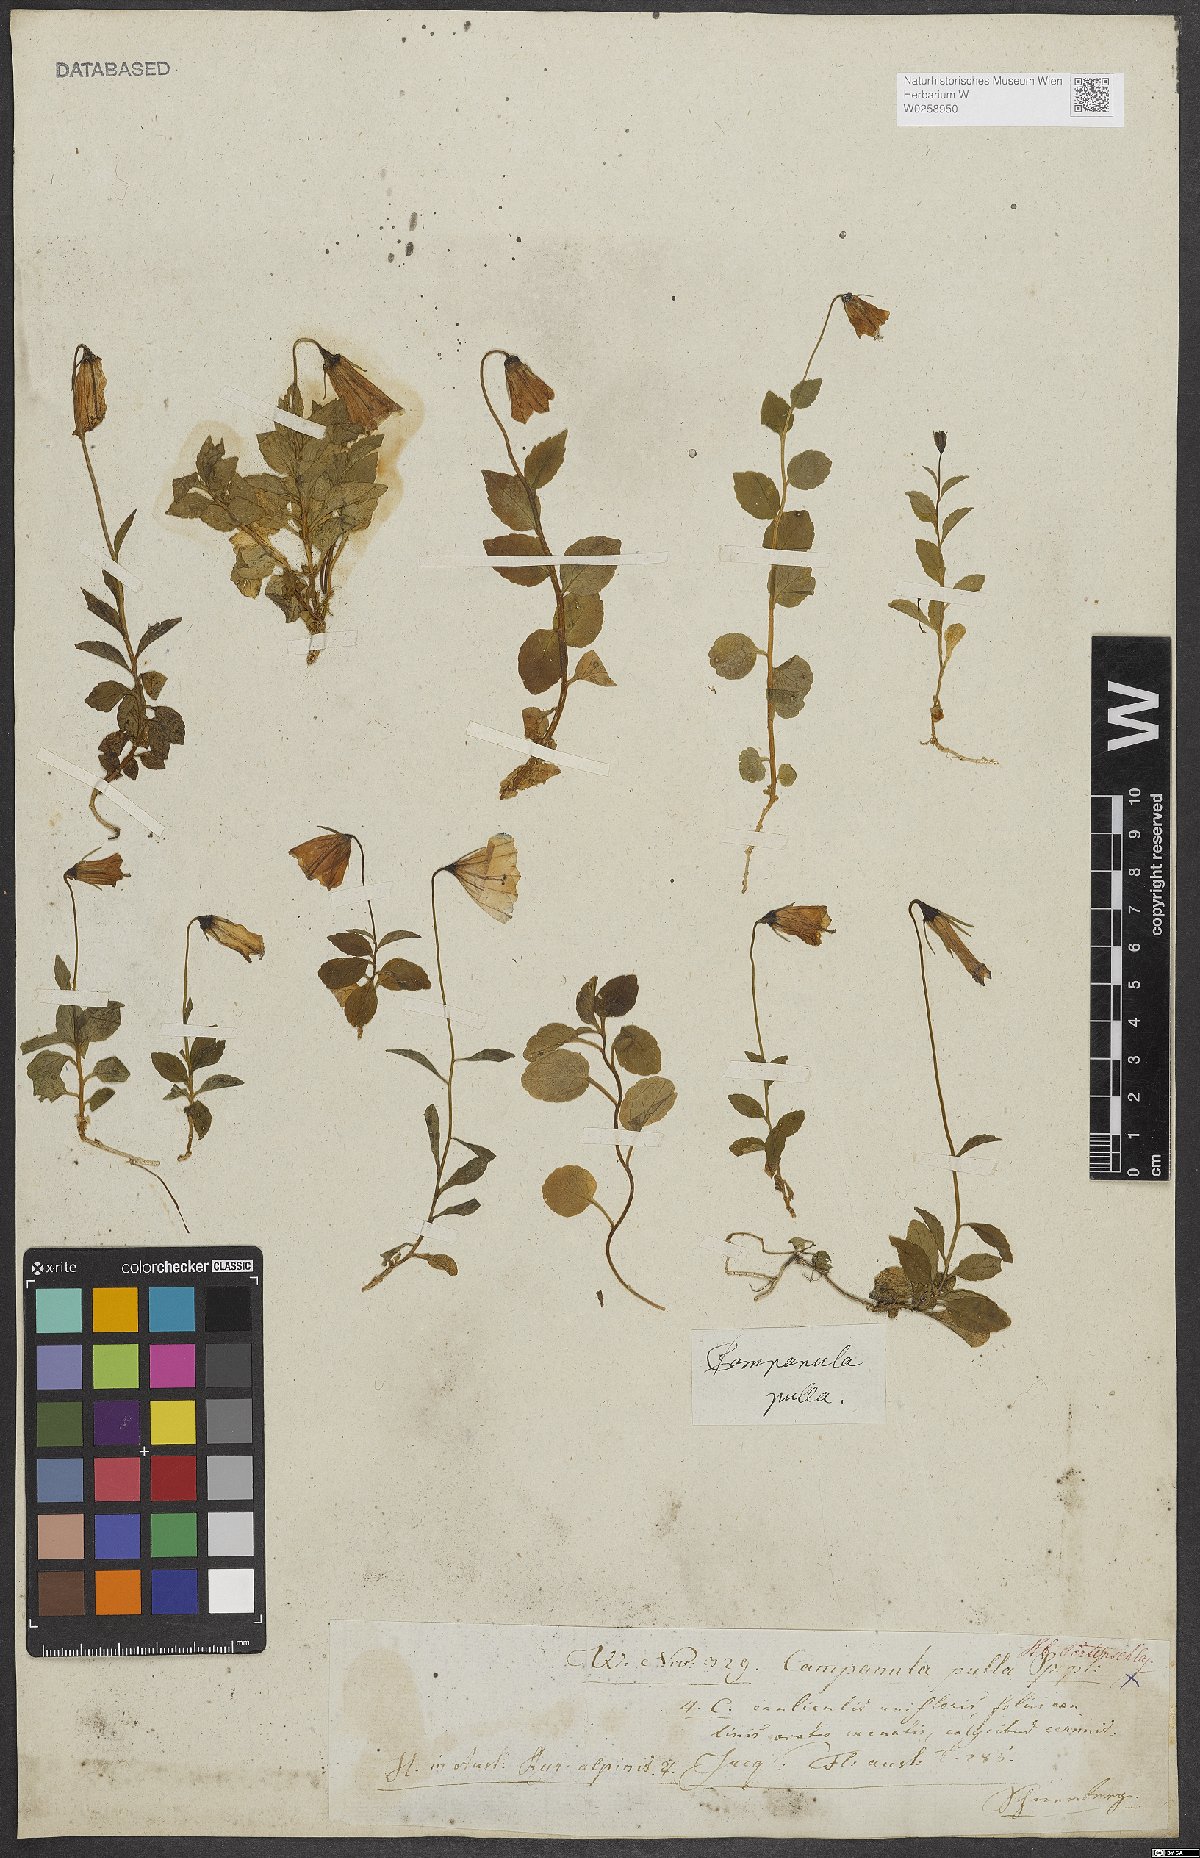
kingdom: Plantae
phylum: Tracheophyta
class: Magnoliopsida
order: Asterales
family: Campanulaceae
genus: Campanula
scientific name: Campanula pulla
